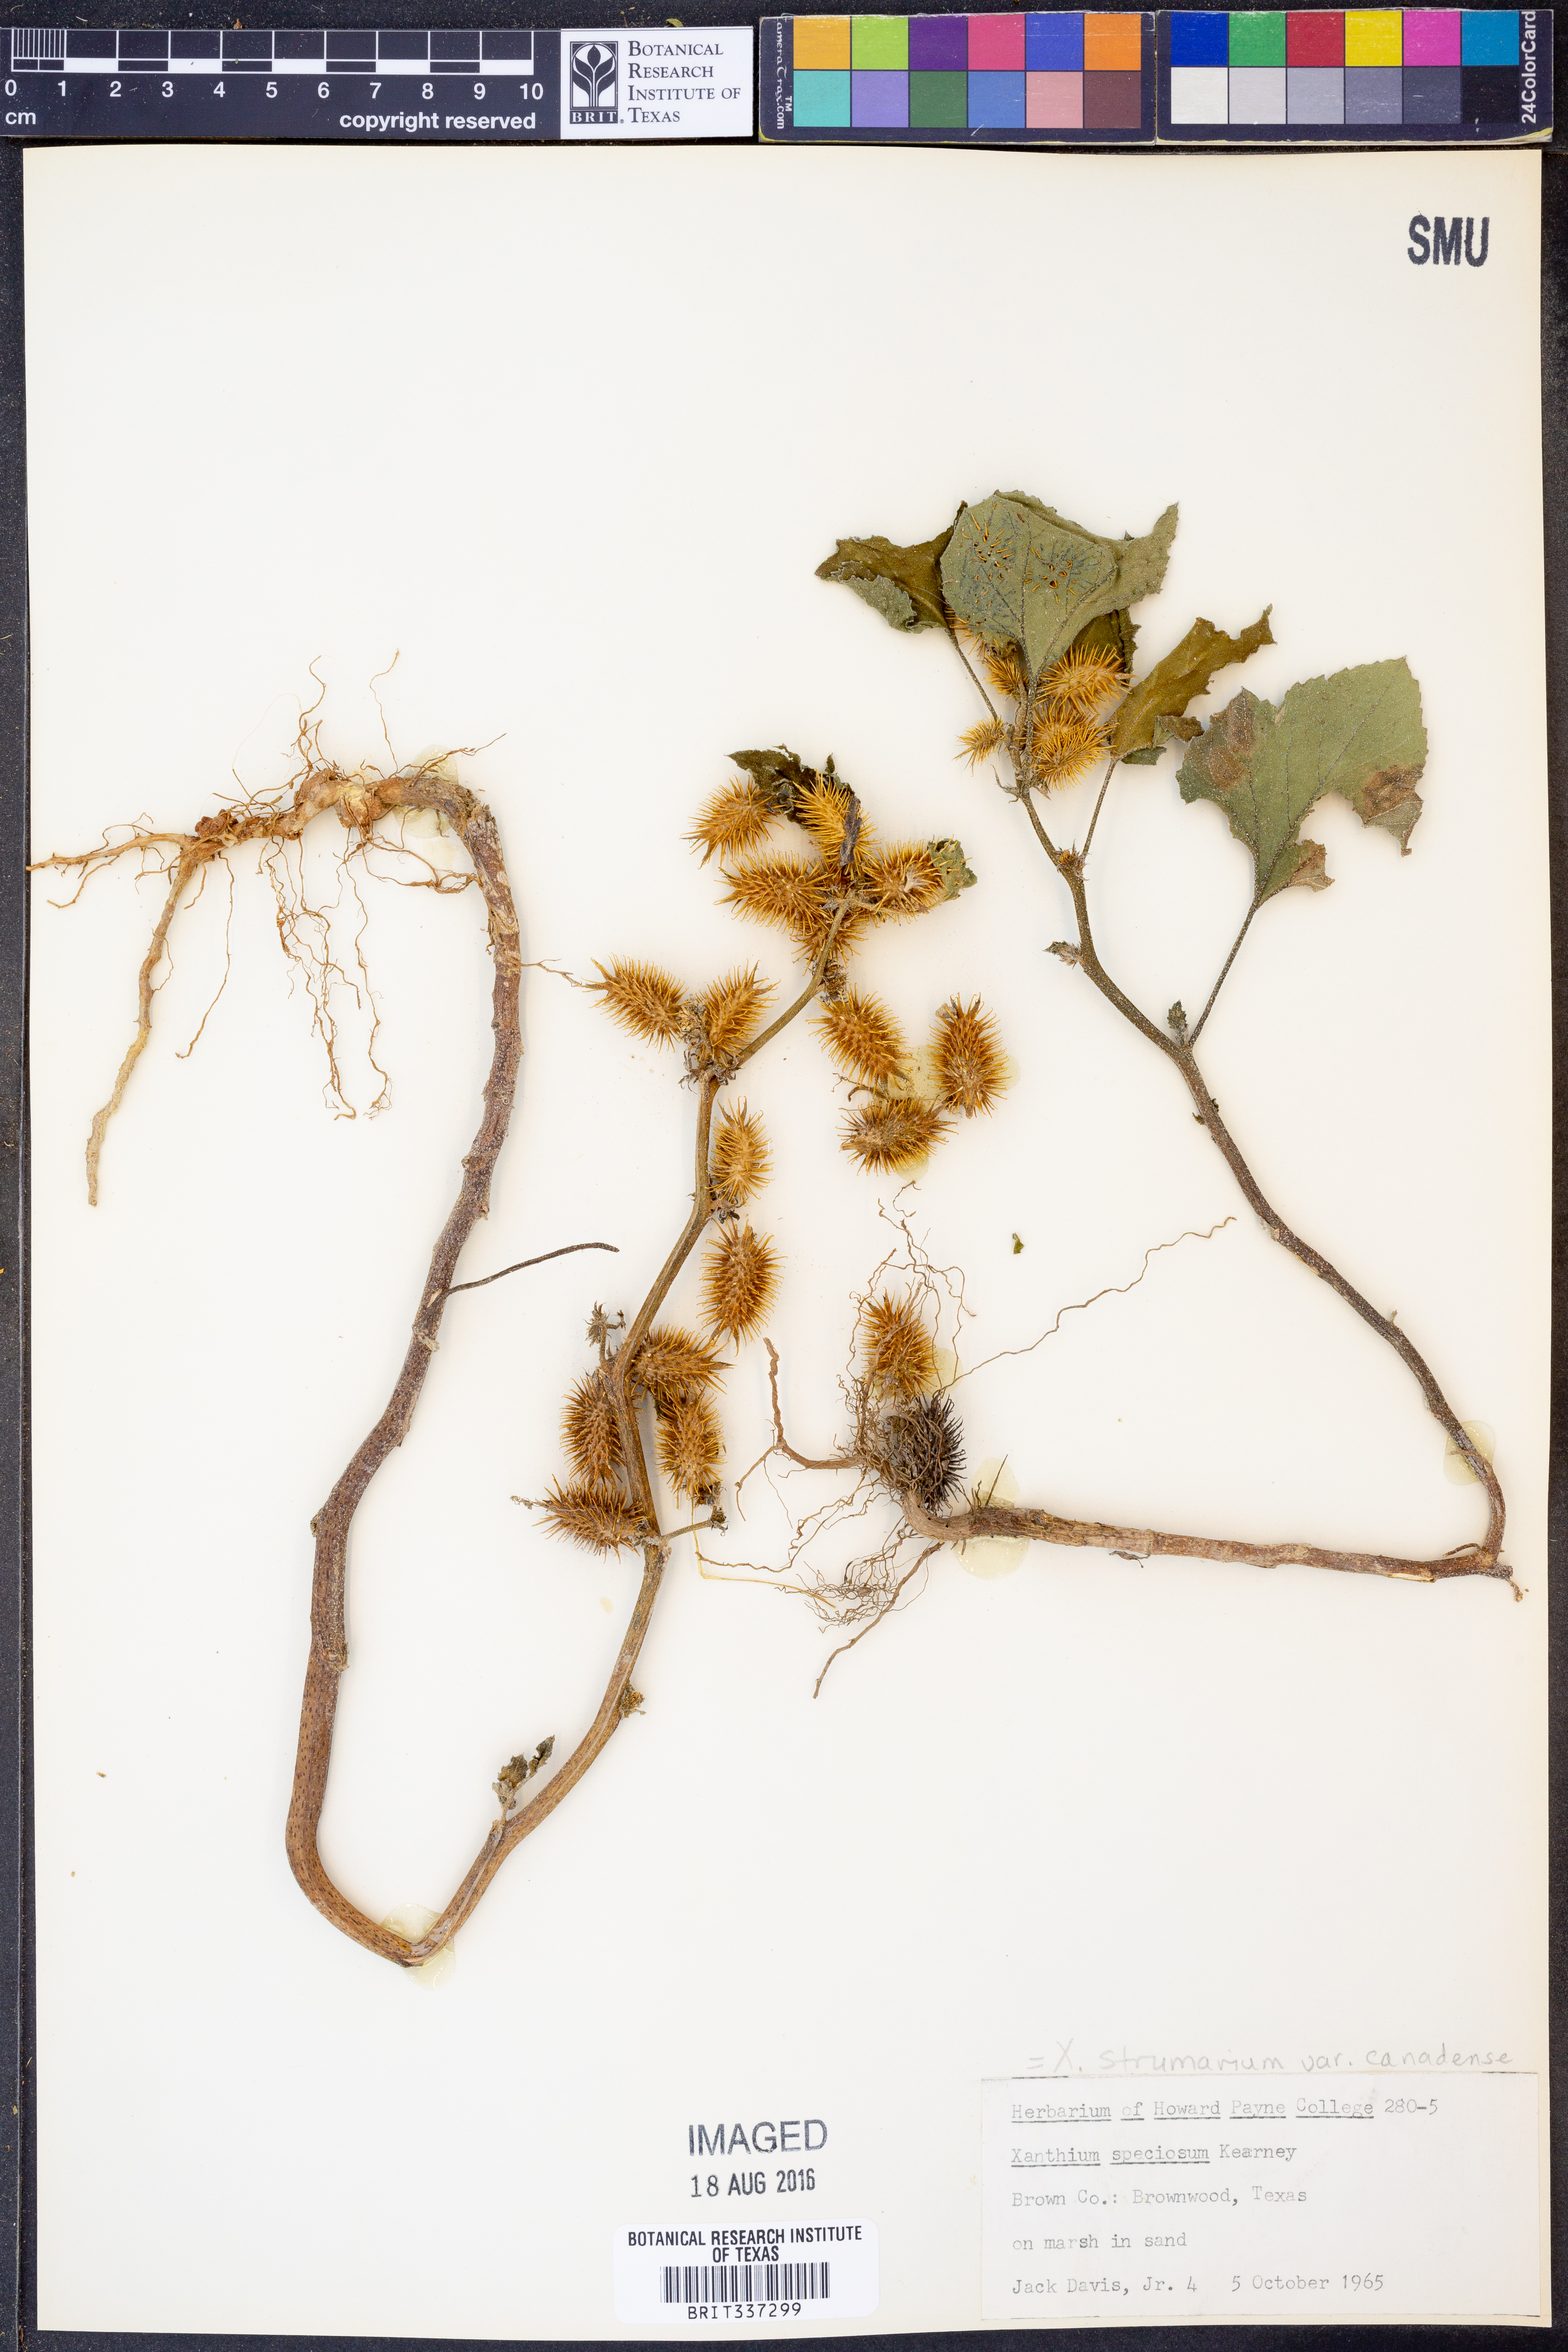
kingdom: Plantae
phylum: Tracheophyta
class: Magnoliopsida
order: Asterales
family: Asteraceae
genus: Xanthium
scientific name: Xanthium orientale
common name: Californian burr
